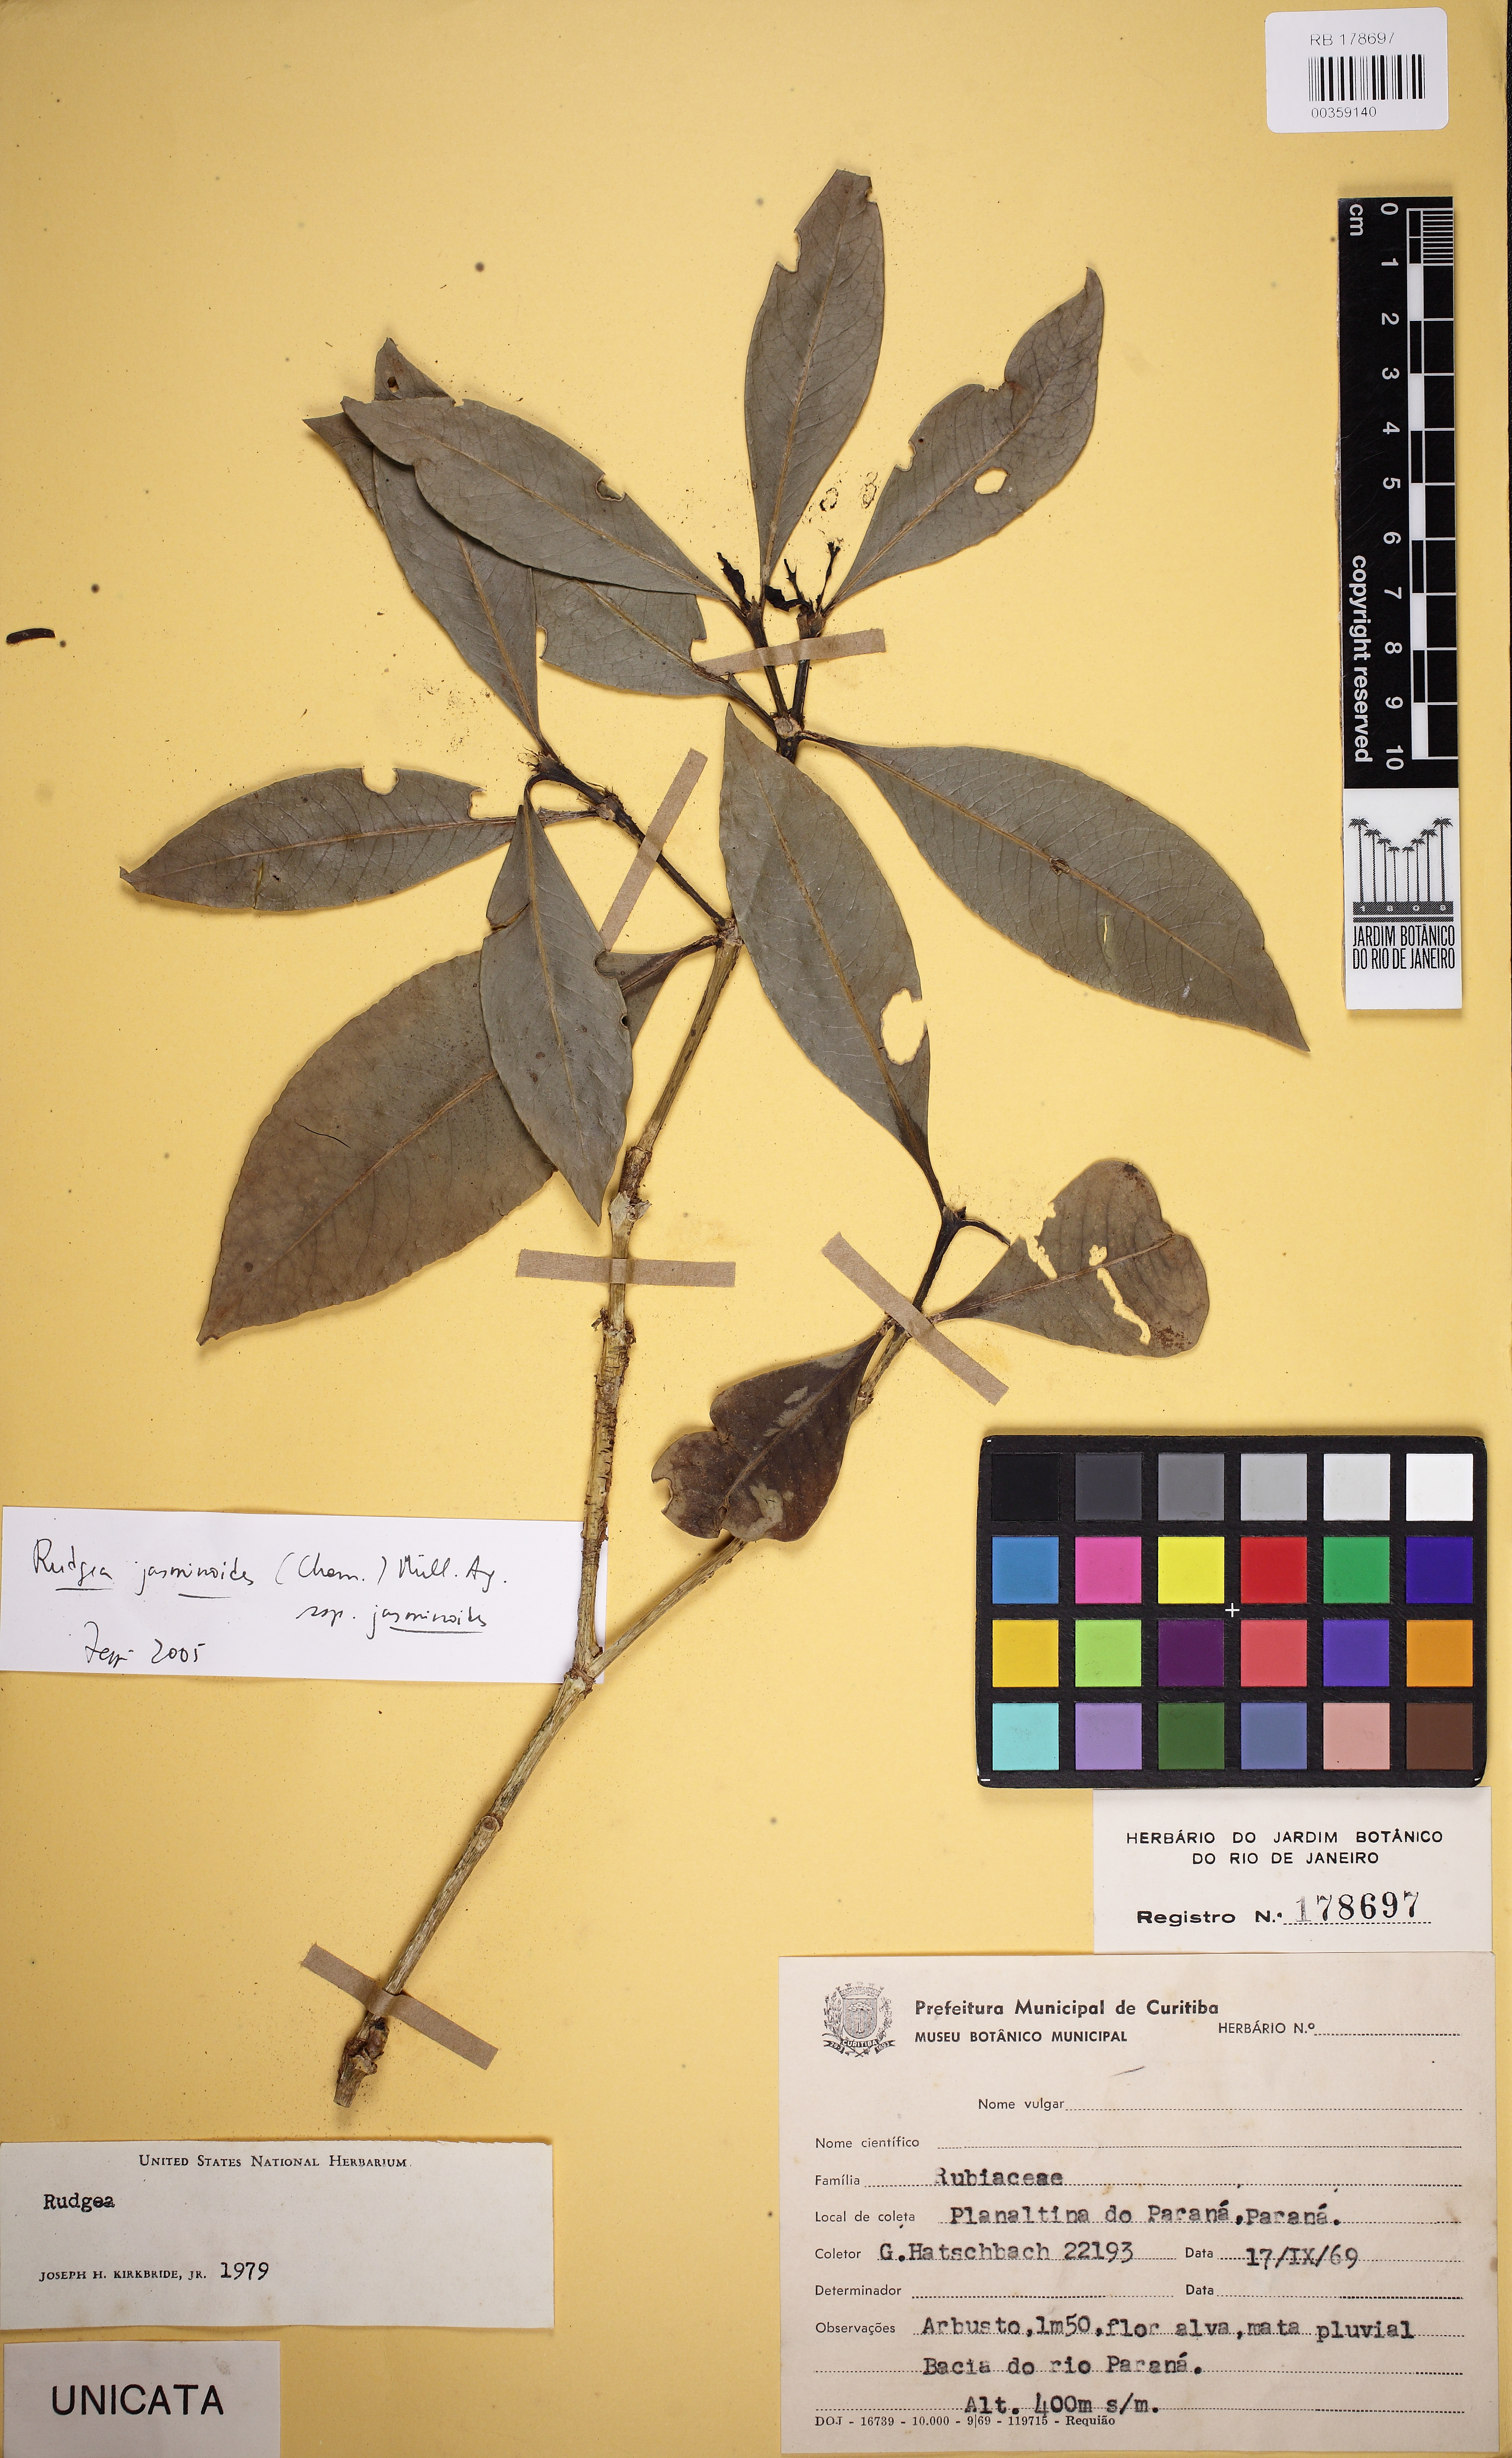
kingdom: Plantae
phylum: Tracheophyta
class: Magnoliopsida
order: Gentianales
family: Rubiaceae
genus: Rudgea
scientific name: Rudgea jasminoides
